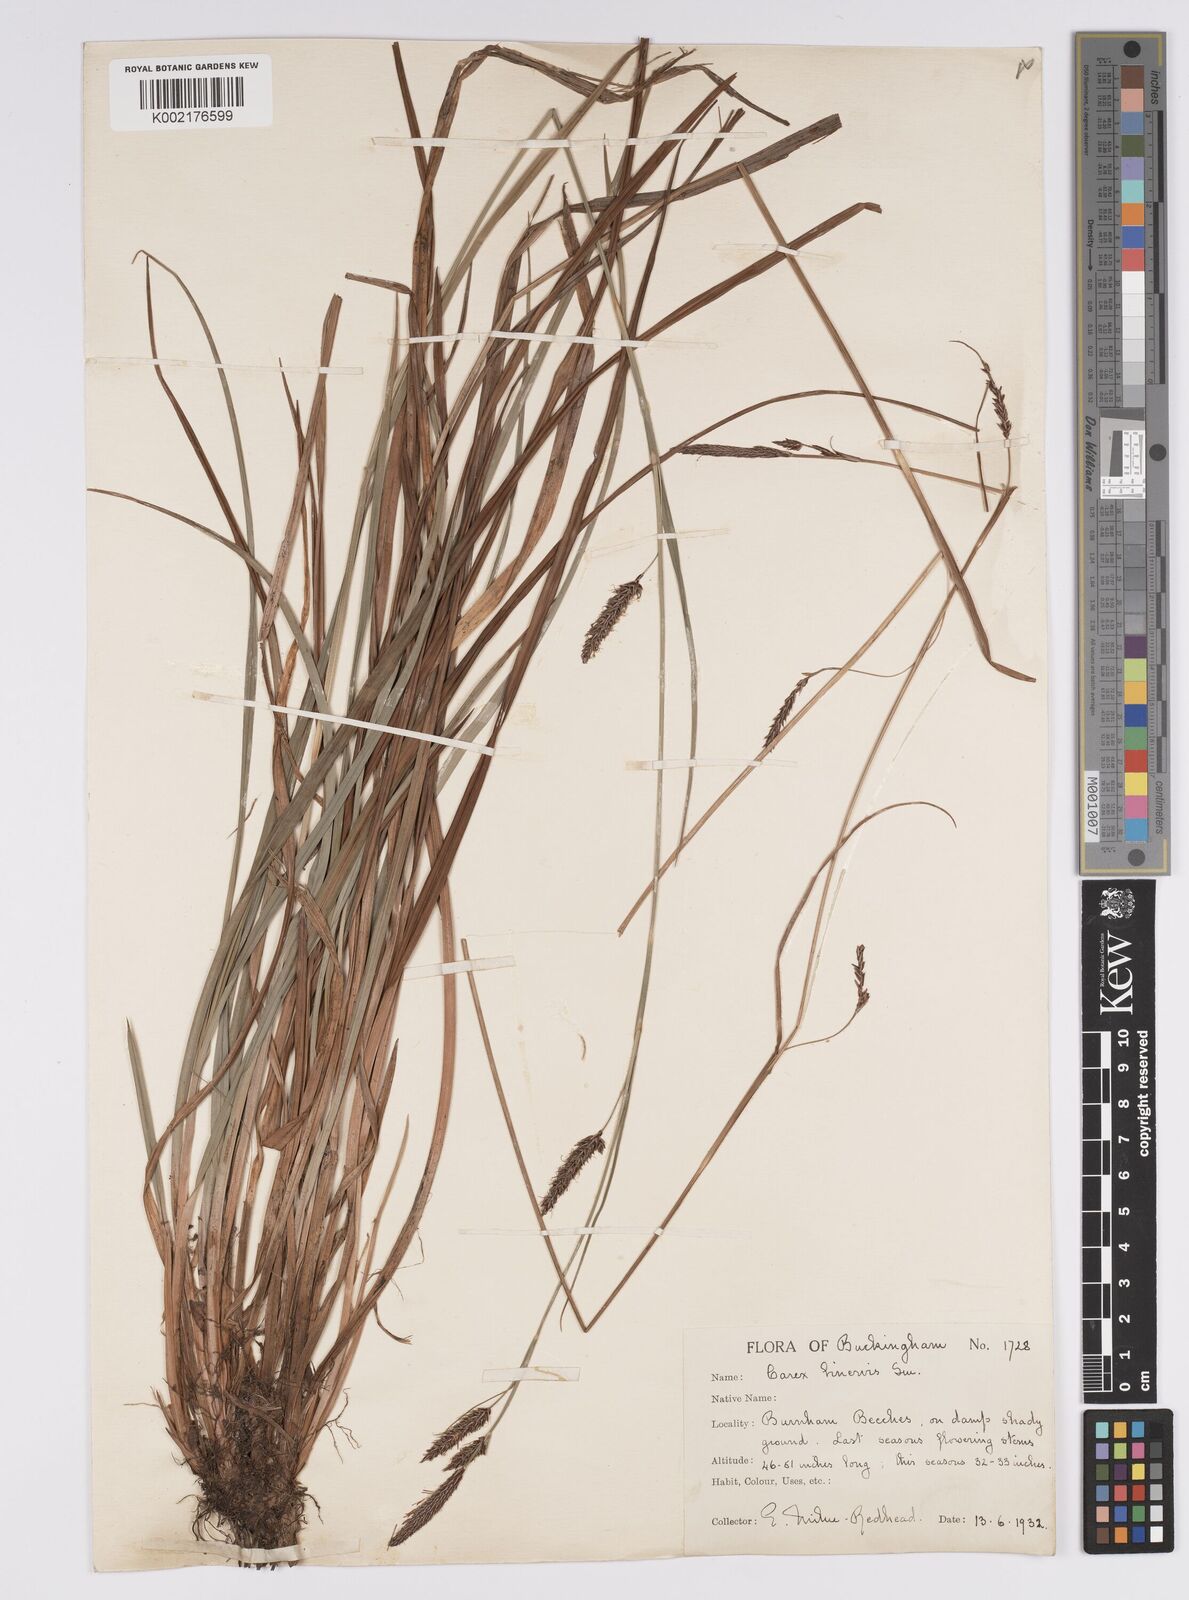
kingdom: Plantae
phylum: Tracheophyta
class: Liliopsida
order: Poales
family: Cyperaceae
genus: Carex
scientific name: Carex binervis
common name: Green-ribbed sedge
